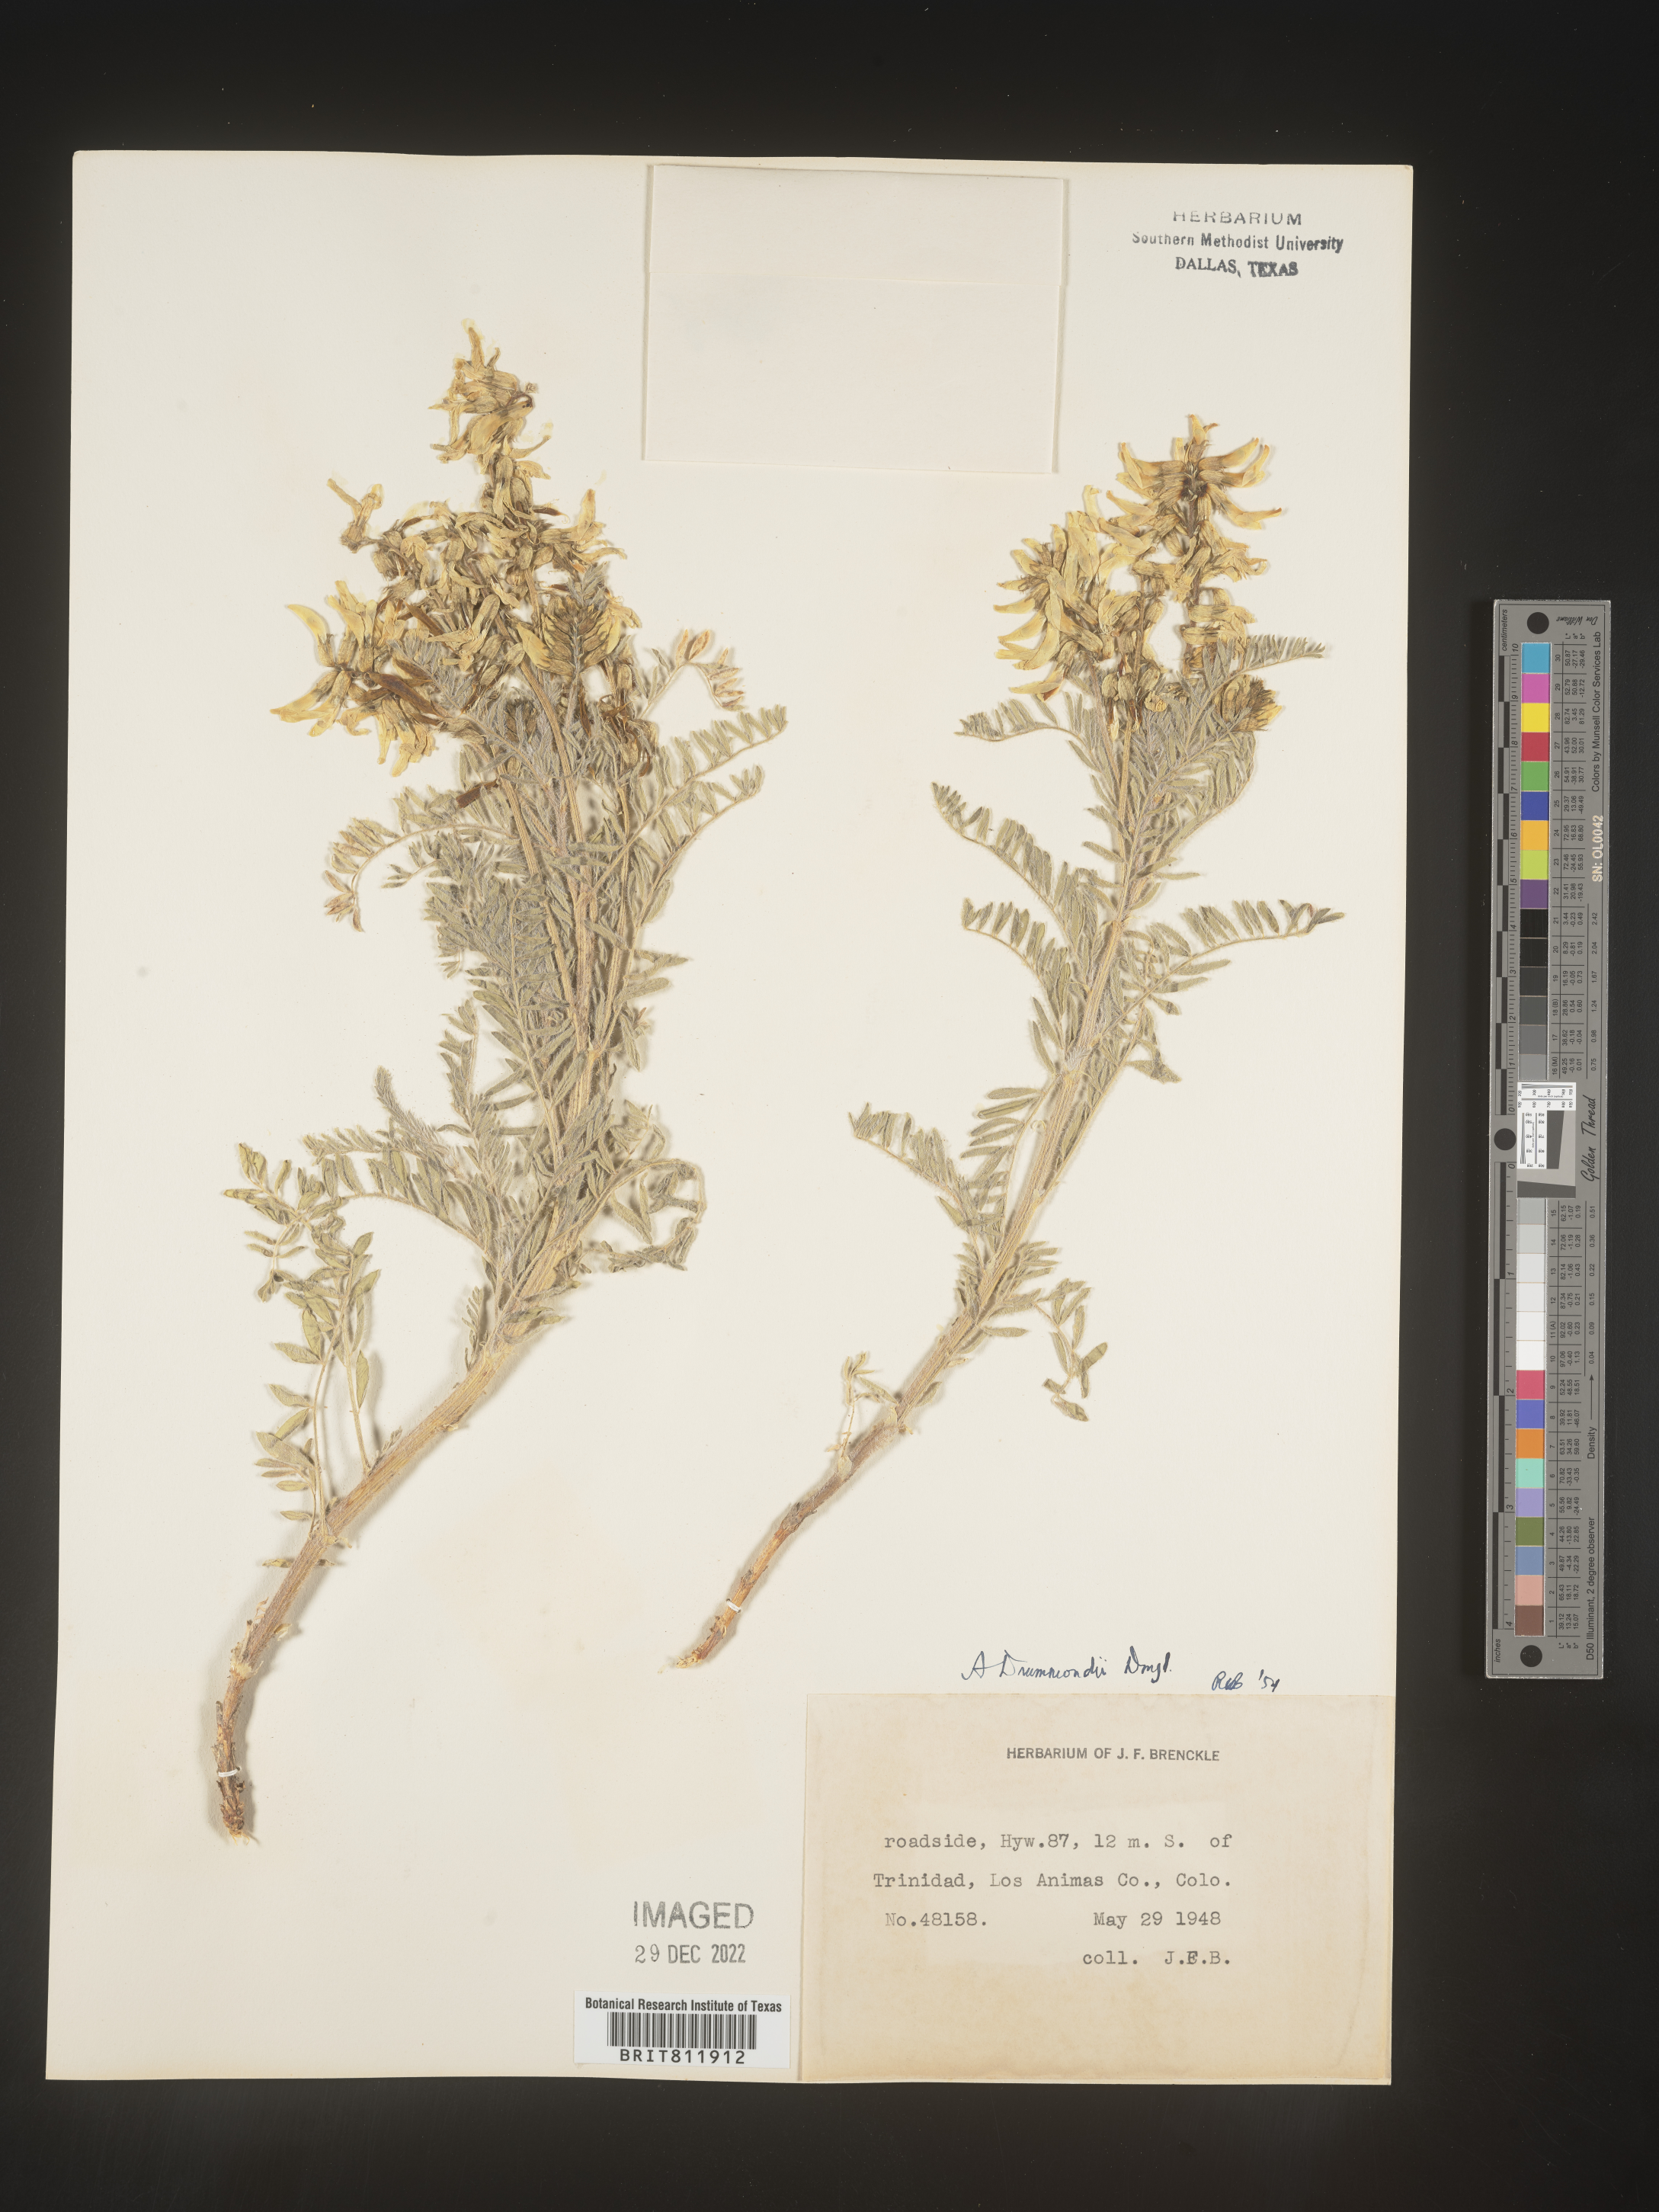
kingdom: Plantae
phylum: Tracheophyta
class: Magnoliopsida
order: Fabales
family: Fabaceae
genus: Astragalus
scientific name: Astragalus drummondii
